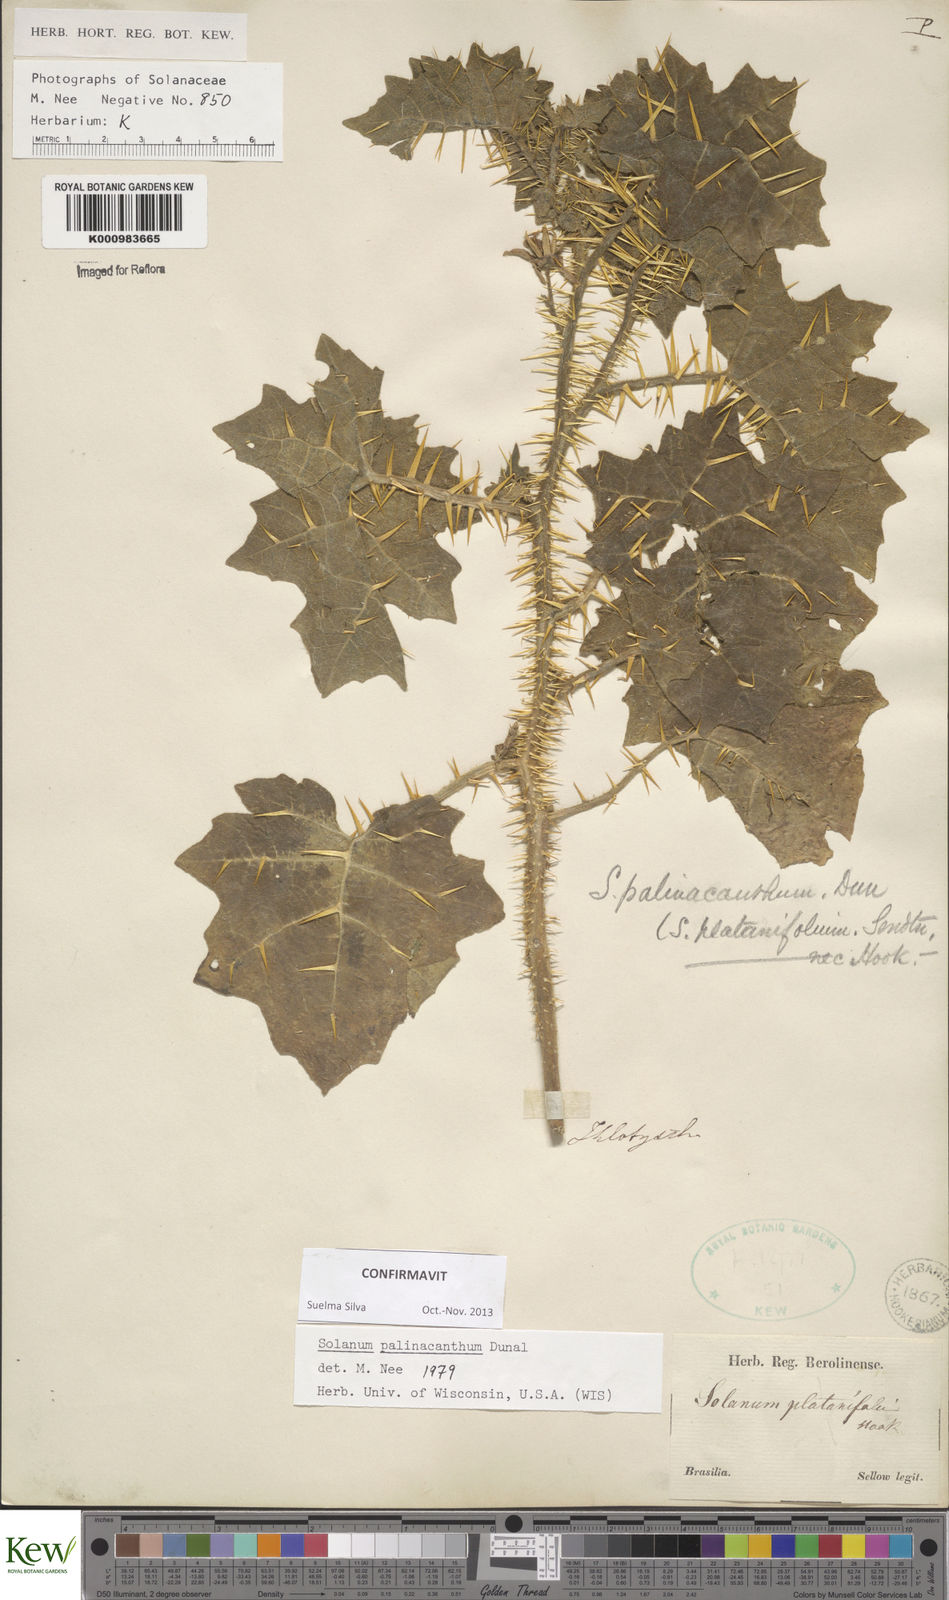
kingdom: Plantae
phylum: Tracheophyta
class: Magnoliopsida
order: Solanales
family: Solanaceae
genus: Solanum
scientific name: Solanum palinacanthum
